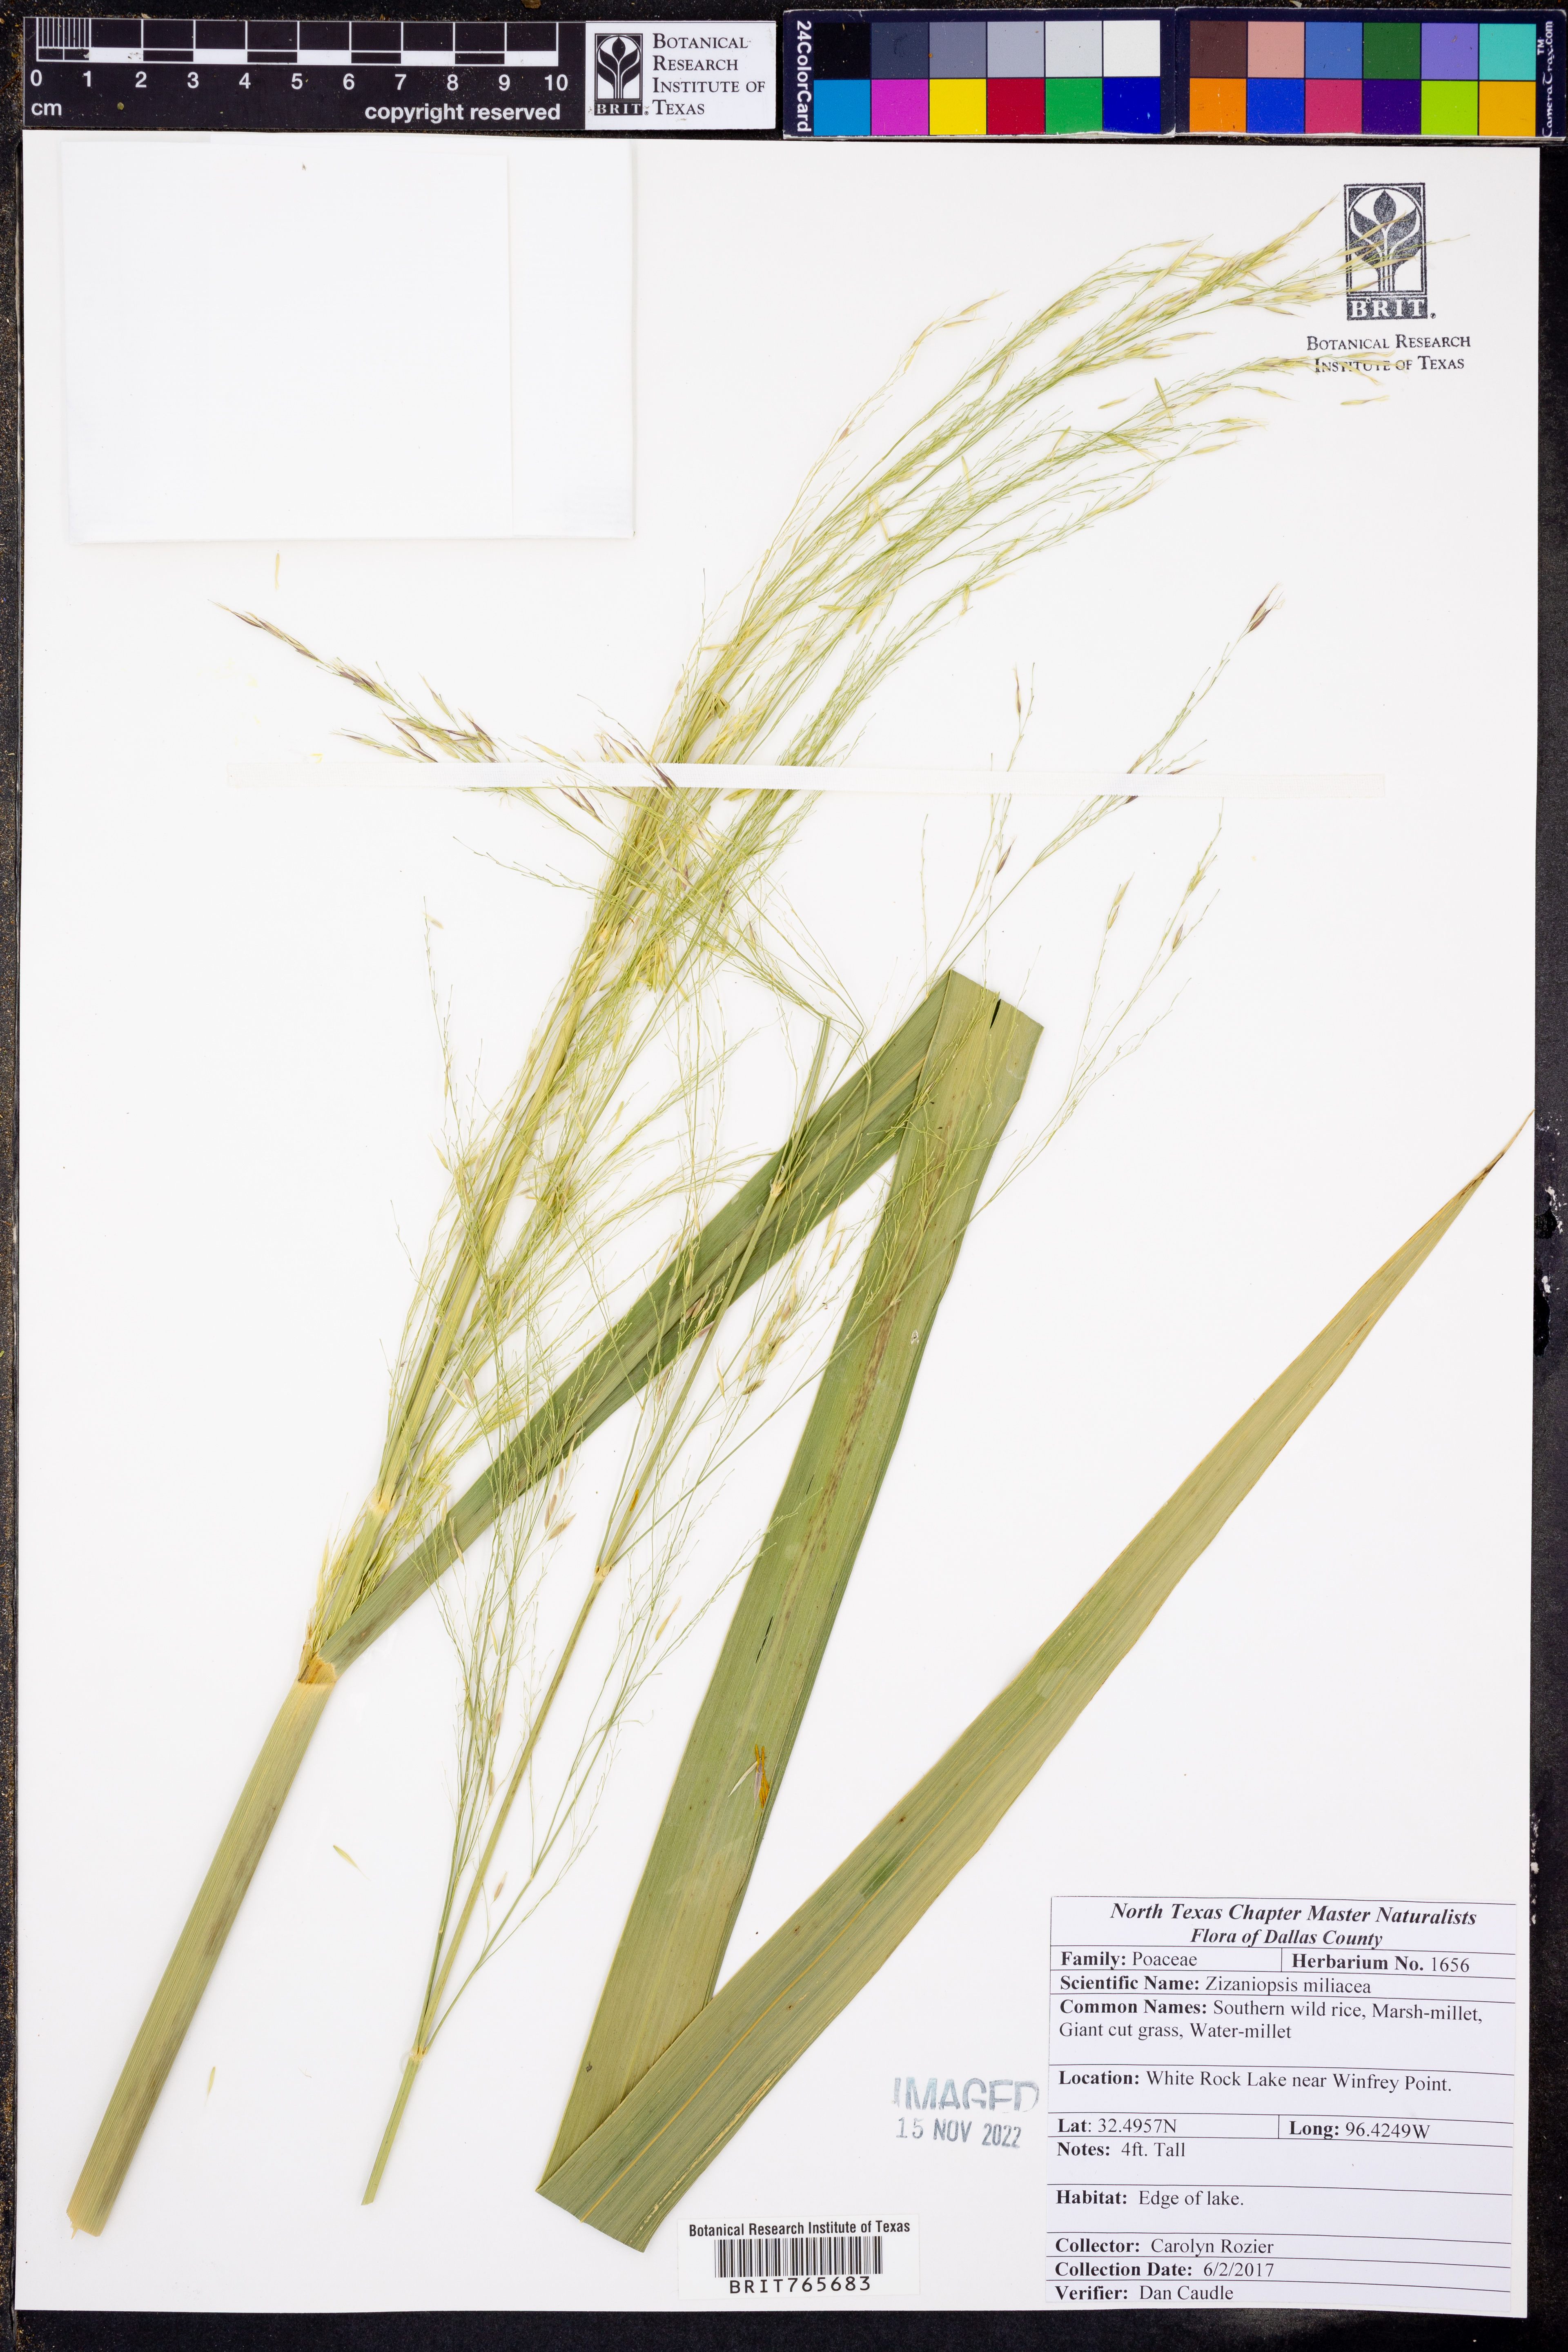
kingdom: Plantae
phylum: Tracheophyta
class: Liliopsida
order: Poales
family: Poaceae
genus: Zizaniopsis
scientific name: Zizaniopsis miliacea
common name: Giant-cutgrass
